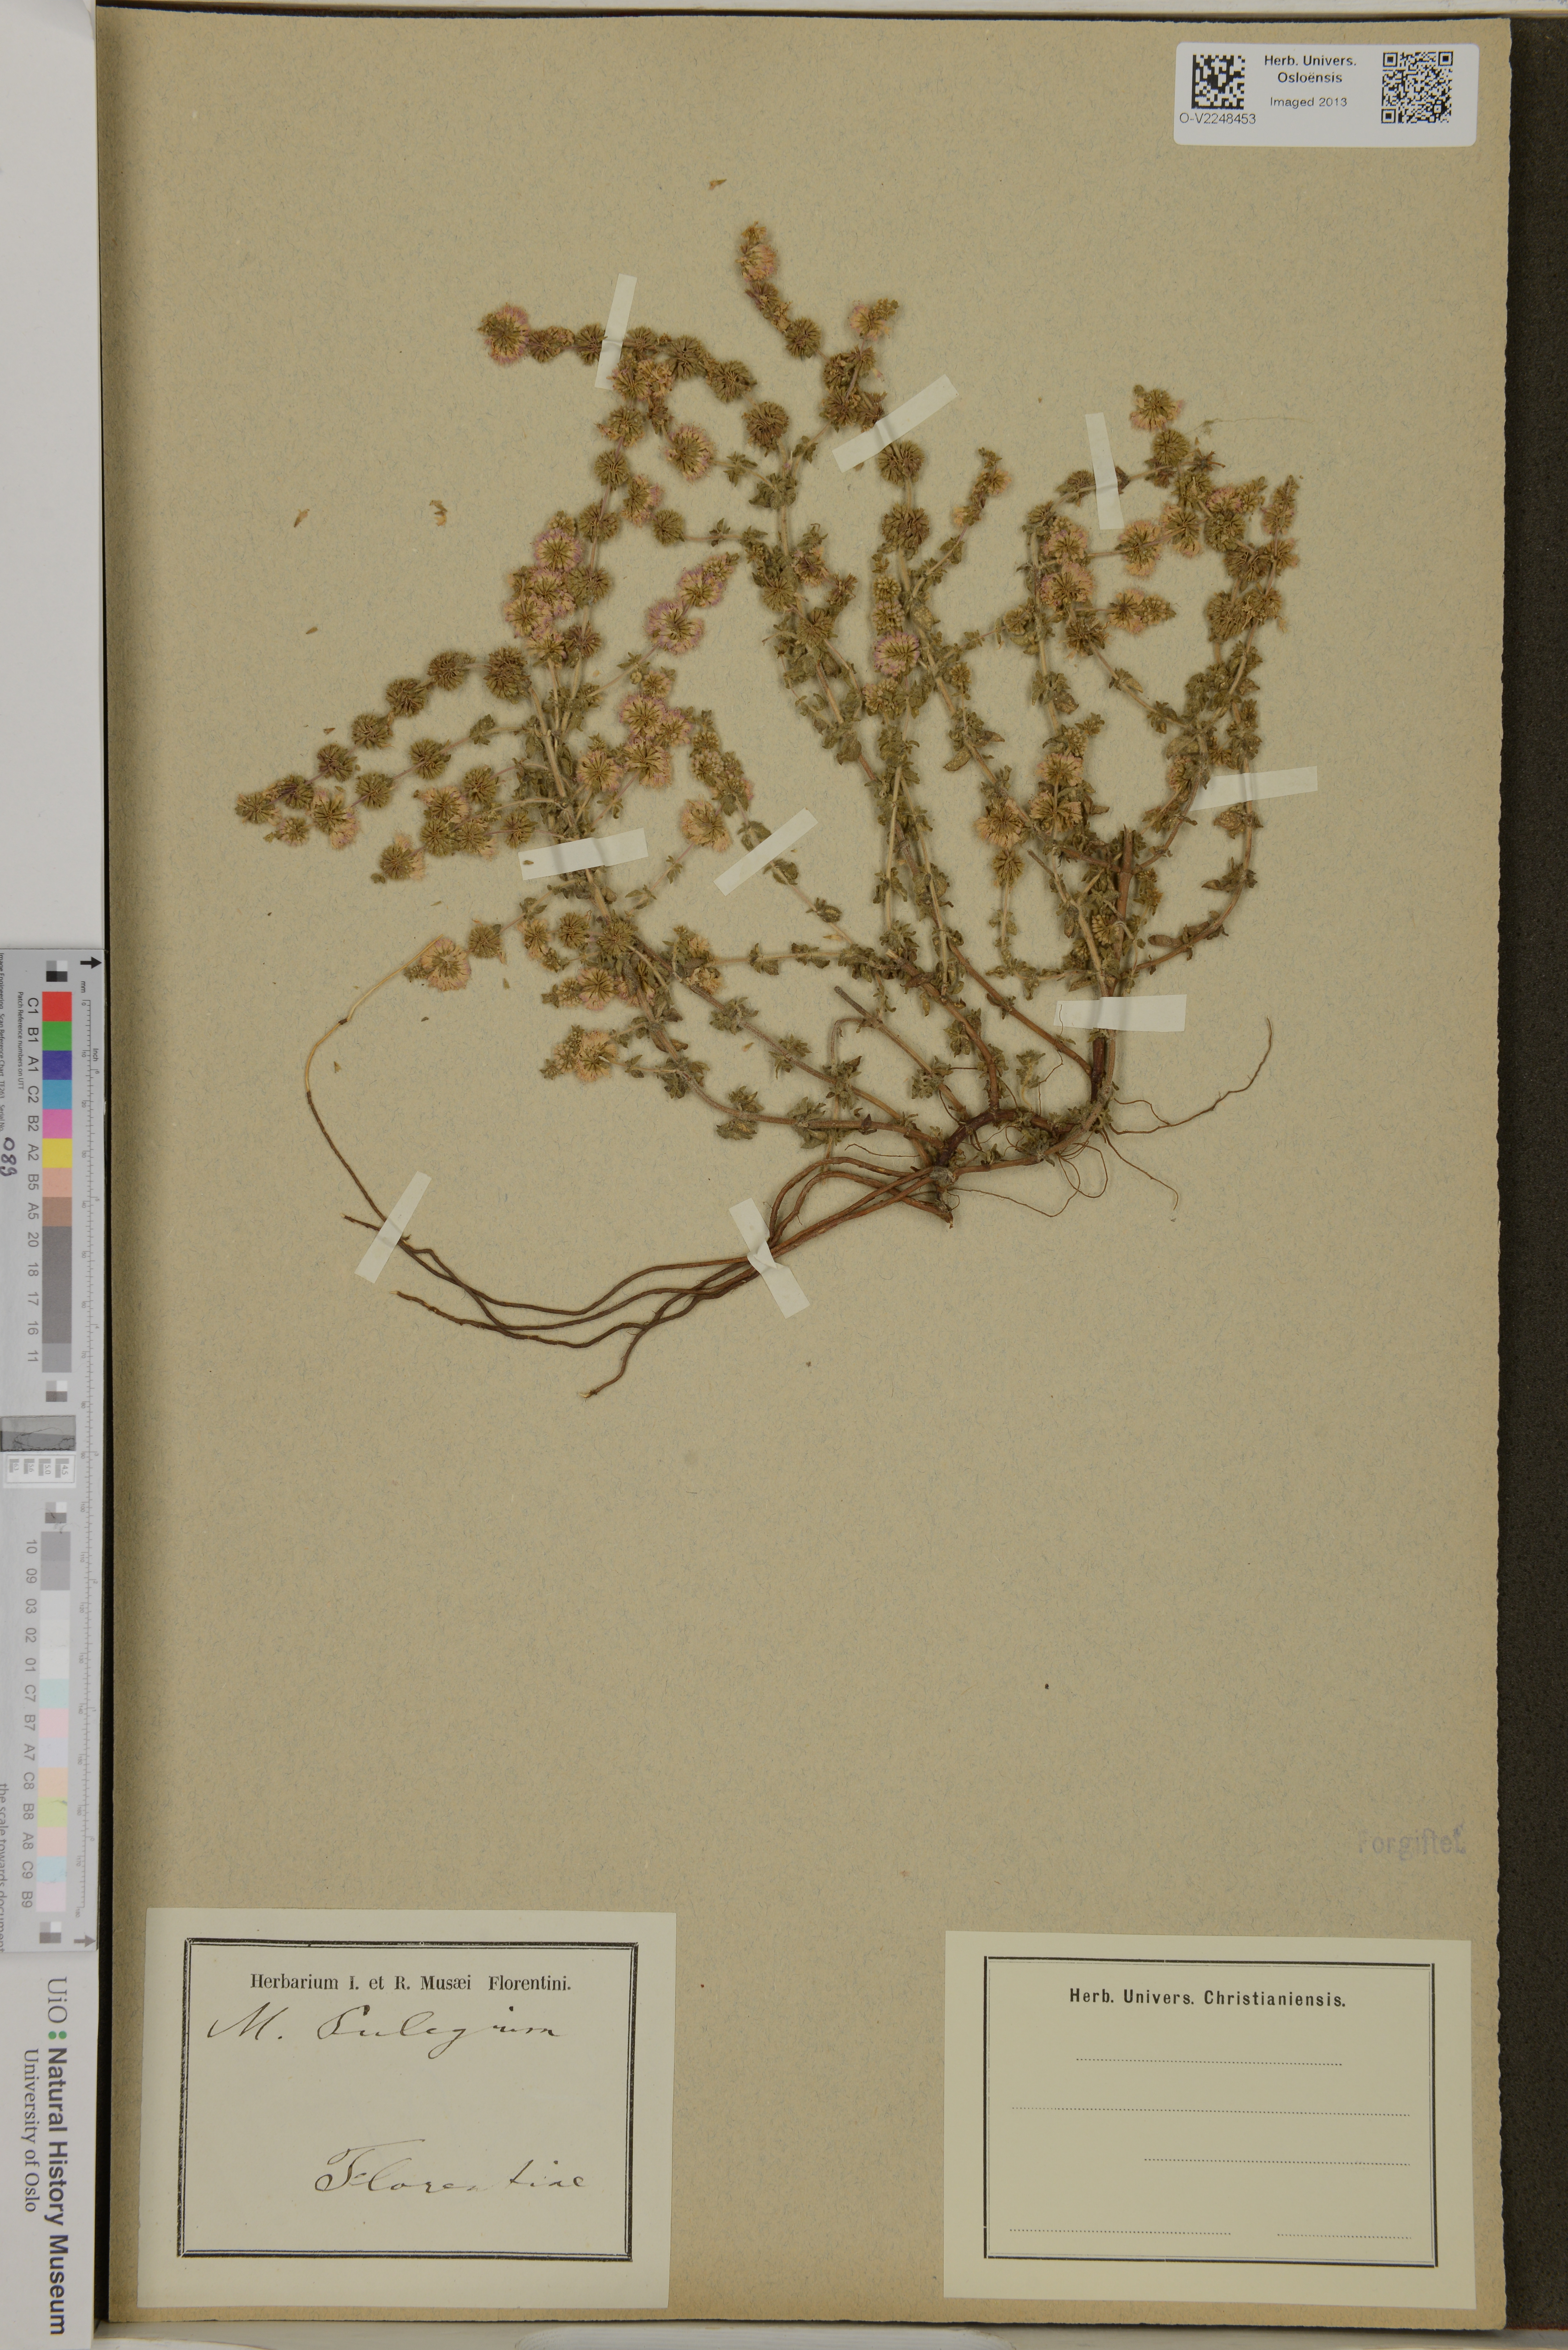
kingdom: Plantae
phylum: Tracheophyta
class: Magnoliopsida
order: Lamiales
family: Lamiaceae
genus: Mentha
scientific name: Mentha pulegium
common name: Pennyroyal
